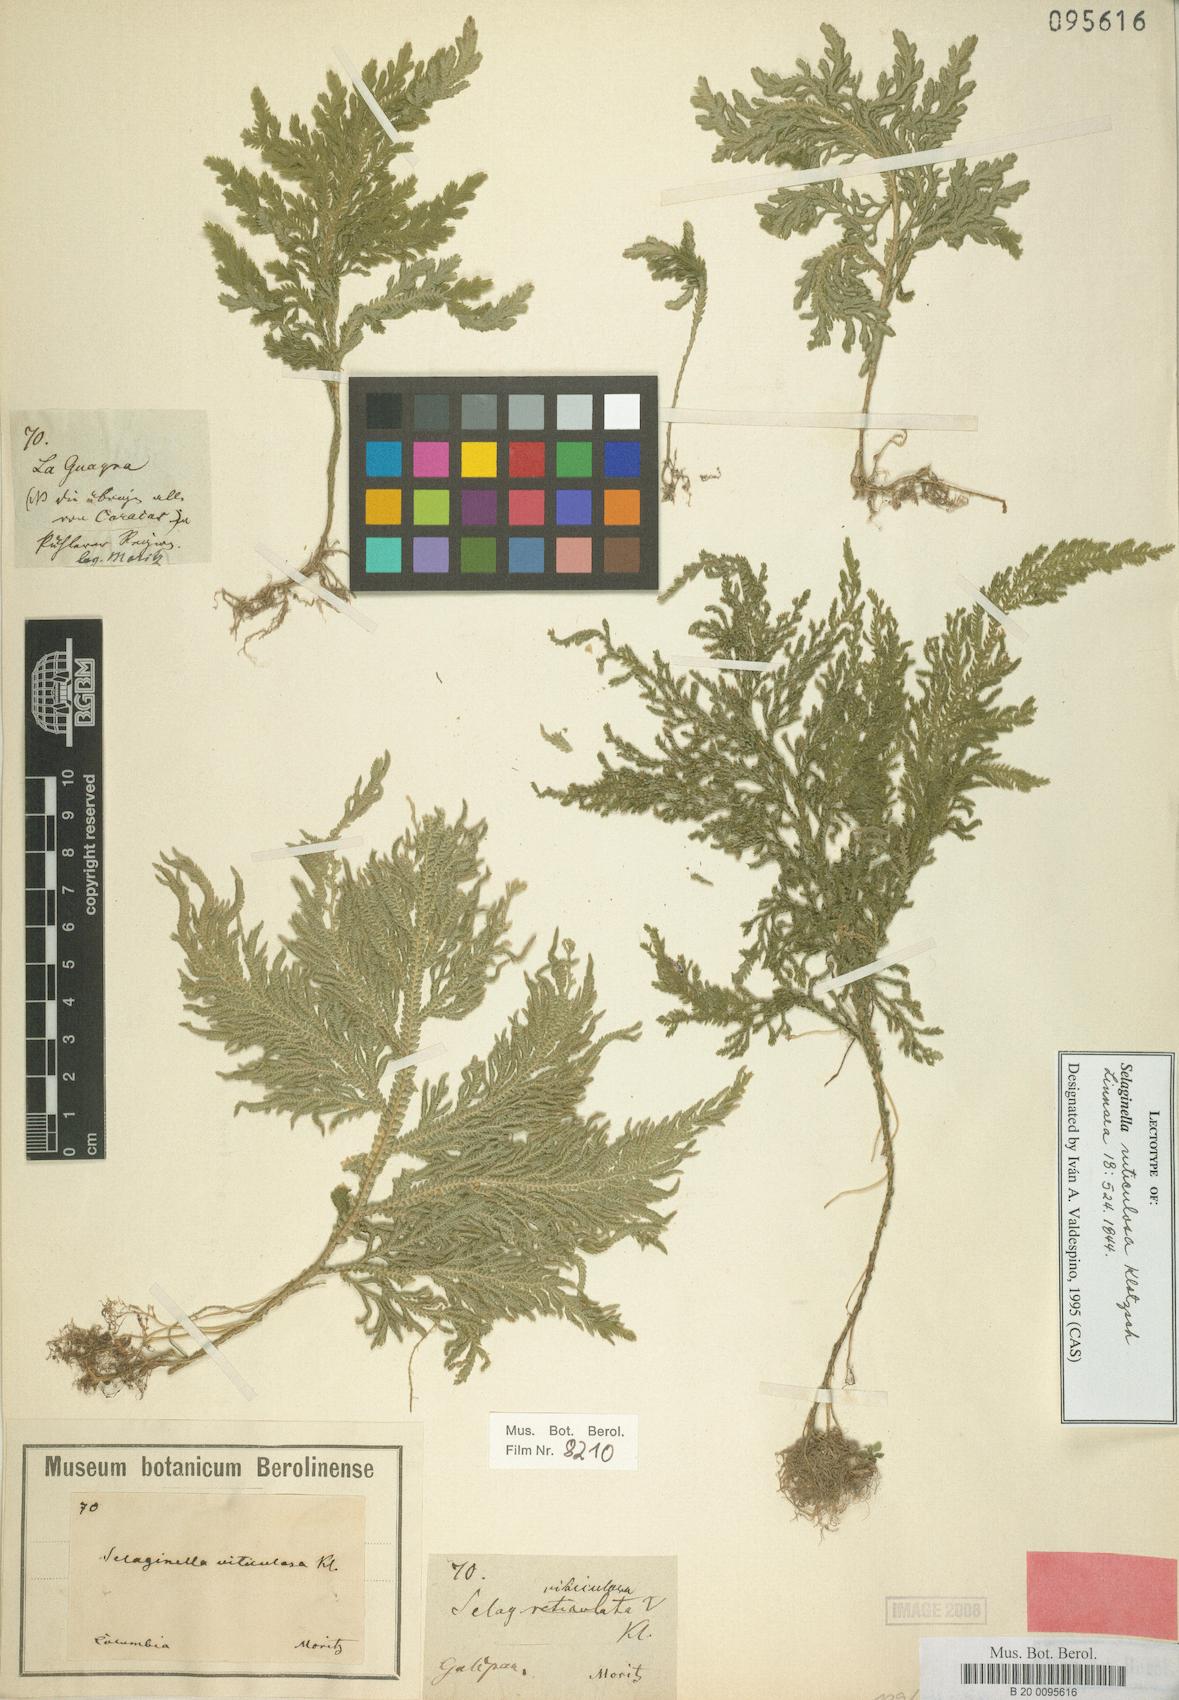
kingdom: Plantae
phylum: Tracheophyta
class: Lycopodiopsida
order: Selaginellales
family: Selaginellaceae
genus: Selaginella
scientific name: Selaginella viticulosa
